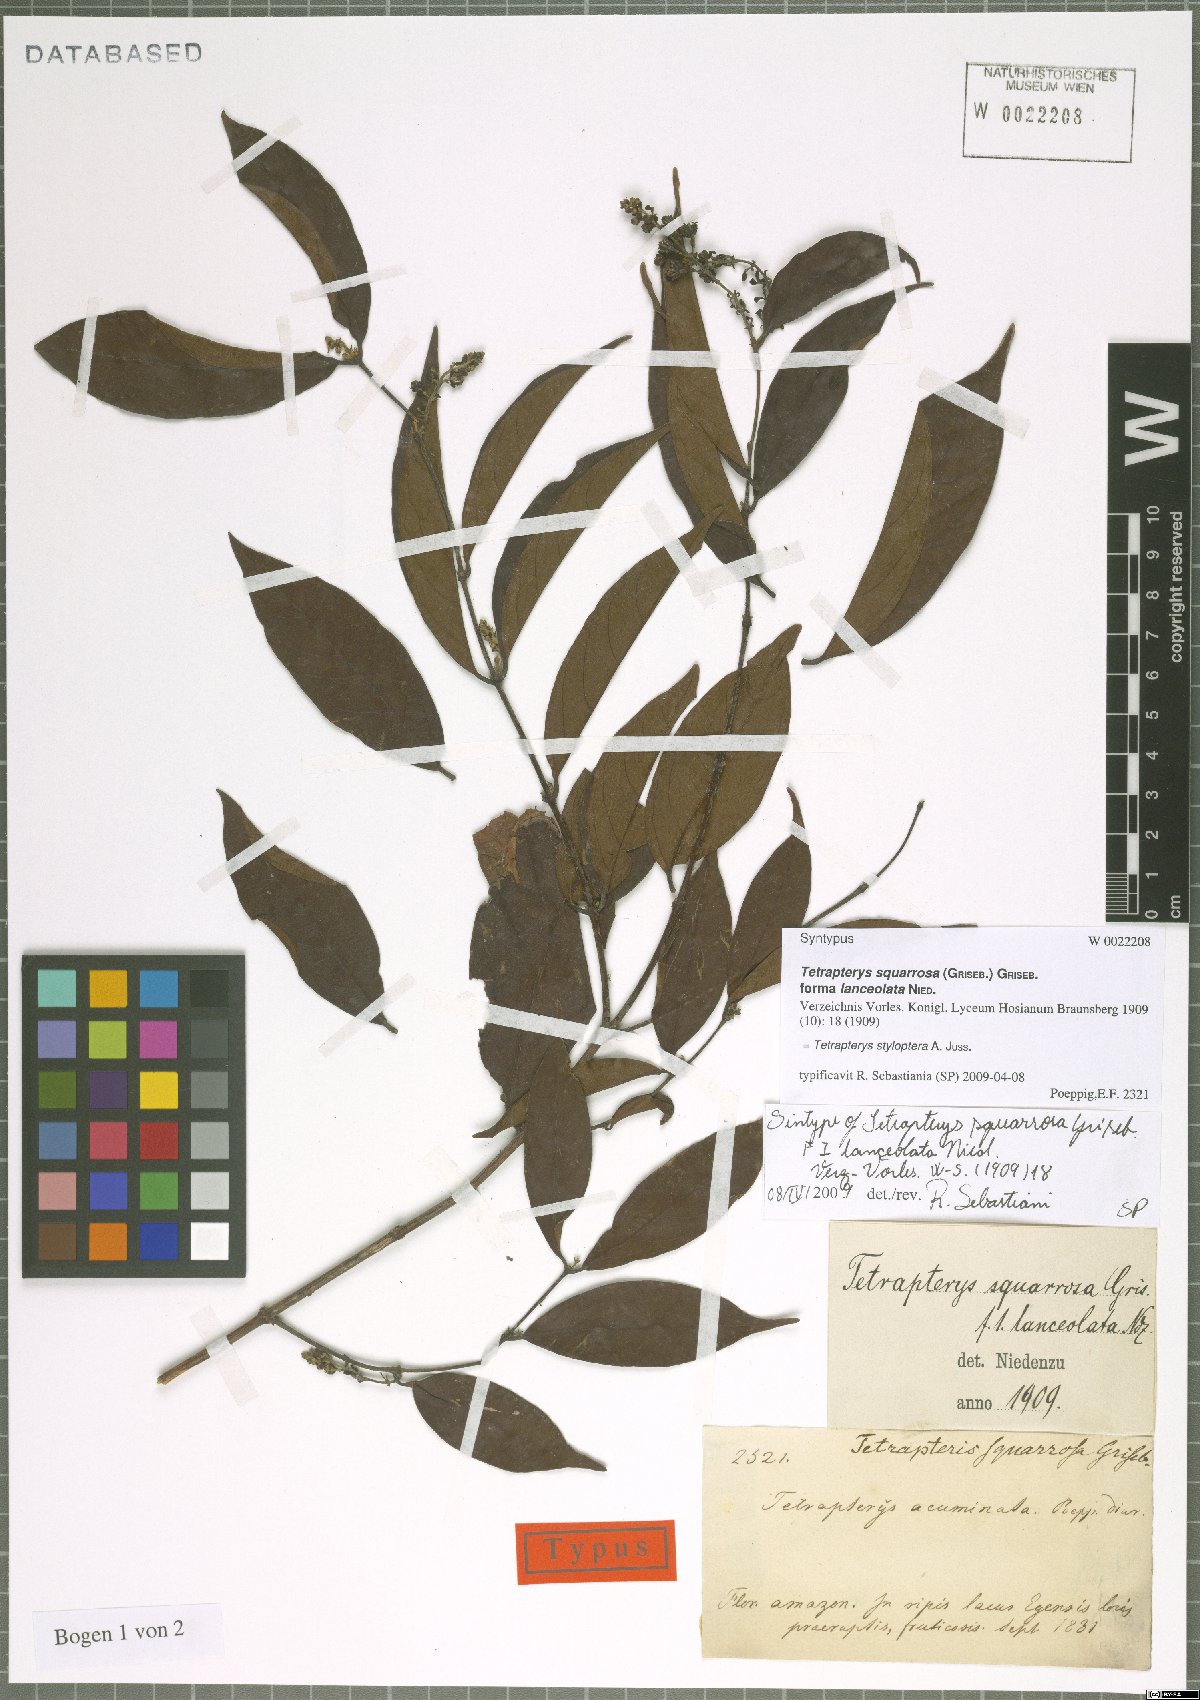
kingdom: Plantae
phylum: Tracheophyta
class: Magnoliopsida
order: Malpighiales
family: Malpighiaceae
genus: Glicophyllum
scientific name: Glicophyllum stylopterum
